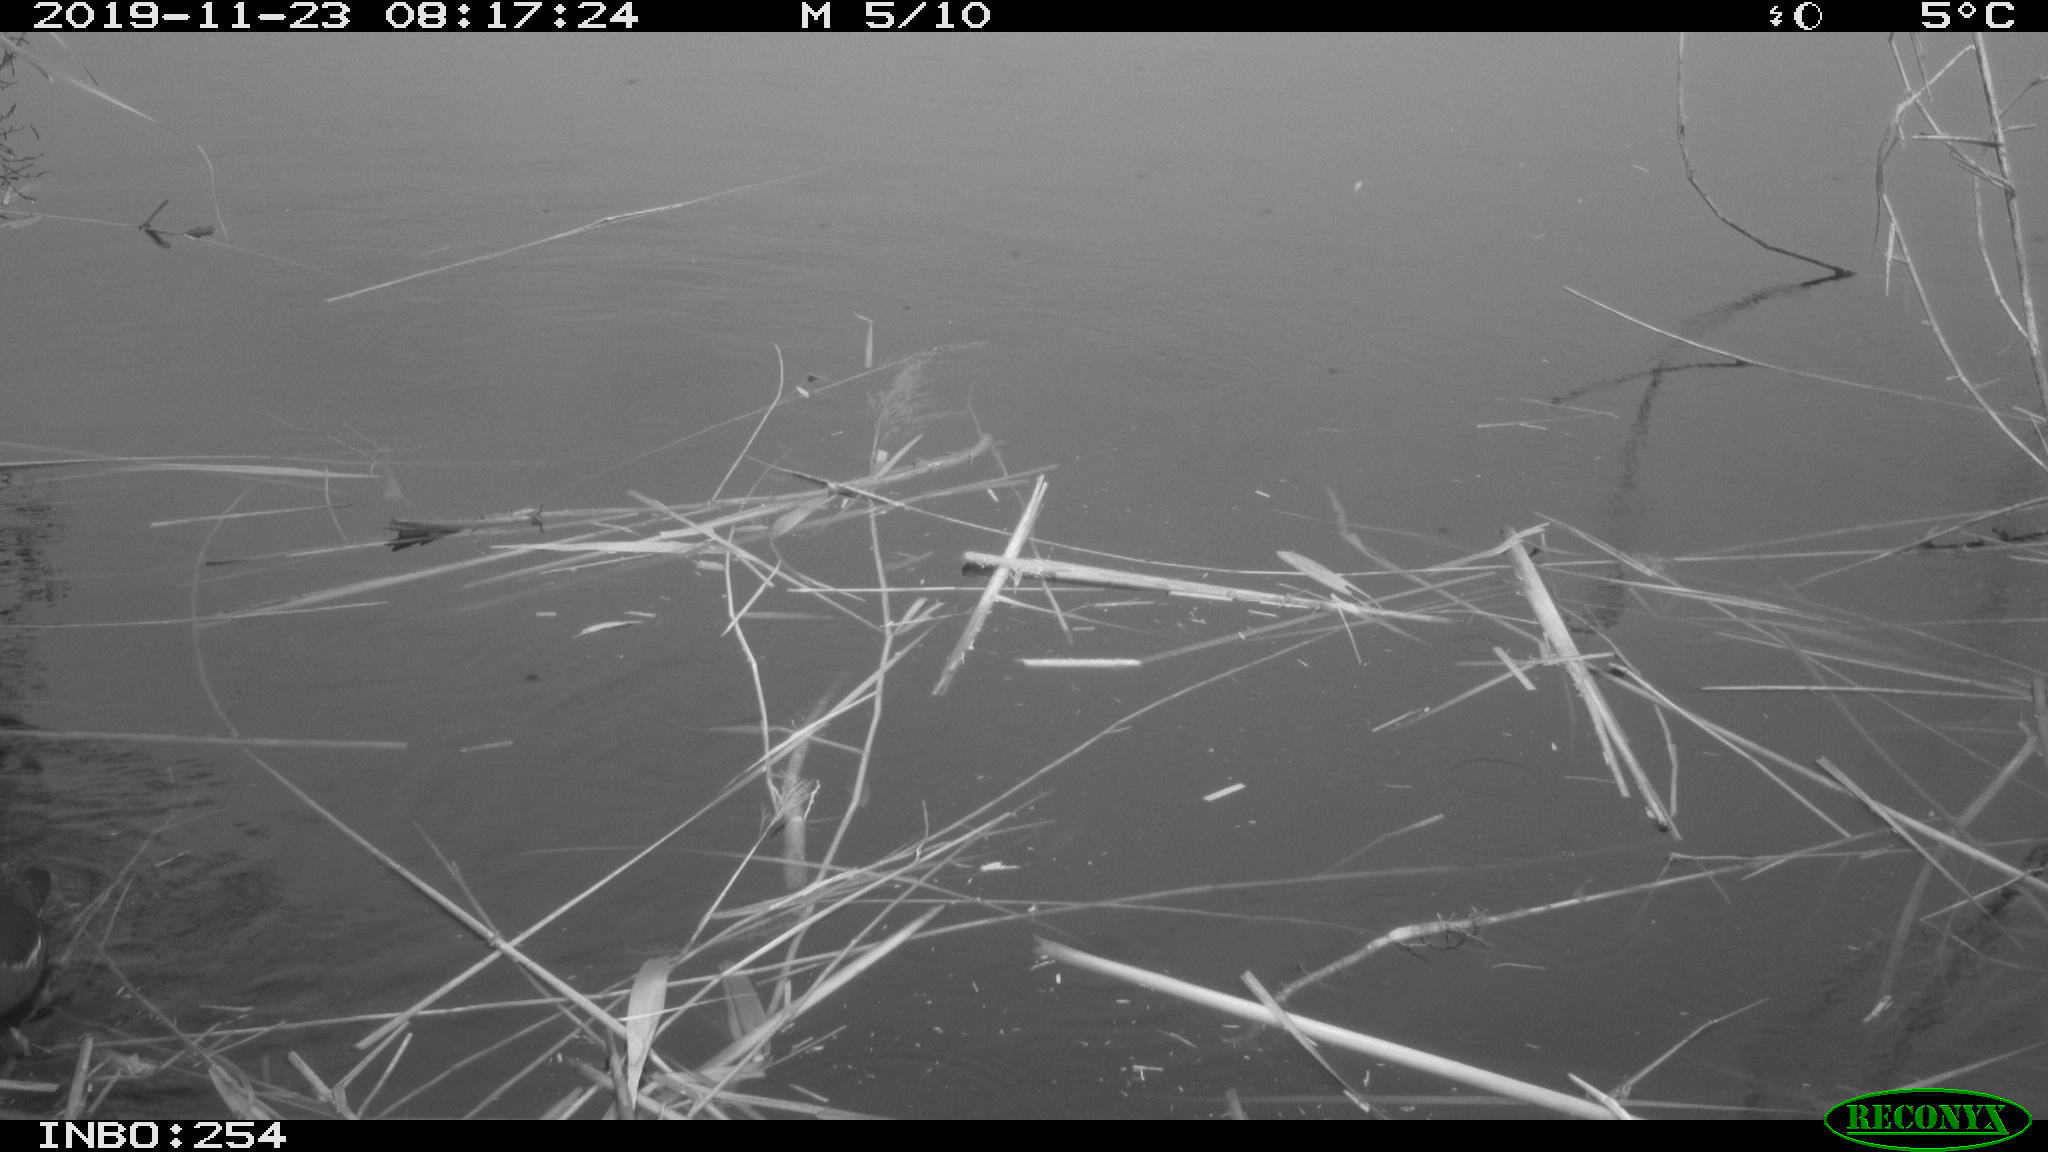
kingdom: Animalia
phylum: Chordata
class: Aves
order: Gruiformes
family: Rallidae
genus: Gallinula
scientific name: Gallinula chloropus
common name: Common moorhen
